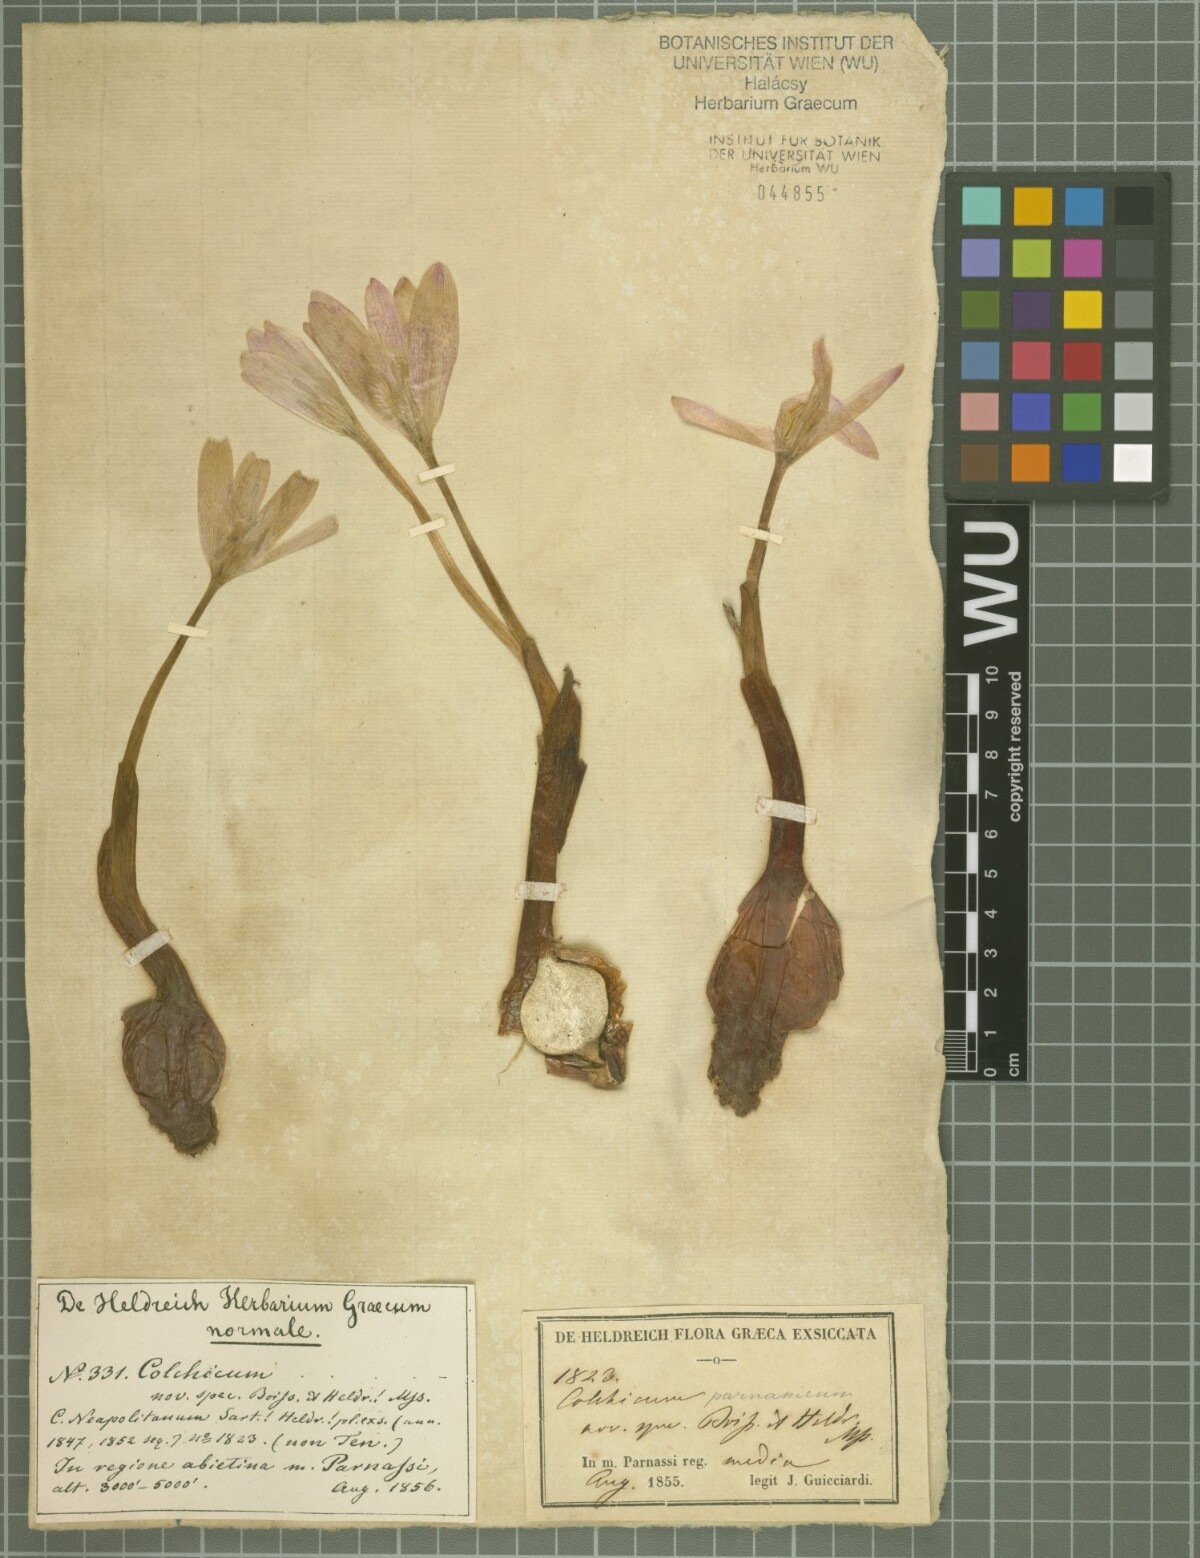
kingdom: Plantae
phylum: Tracheophyta
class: Liliopsida
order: Liliales
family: Colchicaceae
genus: Colchicum
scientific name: Colchicum parnassicum
